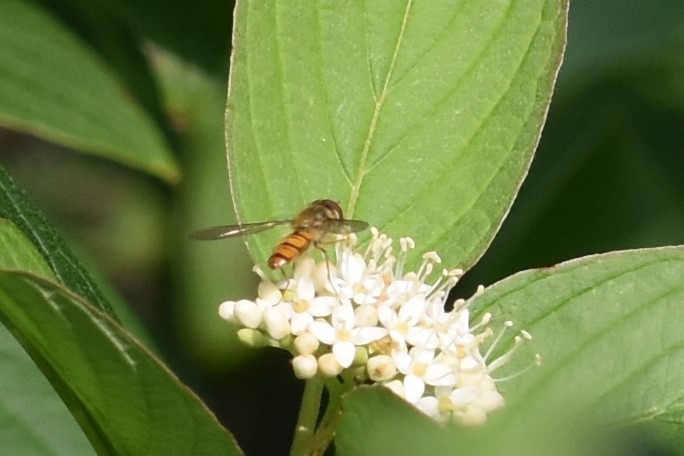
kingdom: Animalia
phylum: Arthropoda
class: Insecta
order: Diptera
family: Syrphidae
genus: Episyrphus
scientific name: Episyrphus balteatus
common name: Dobbeltbåndet svirreflue
